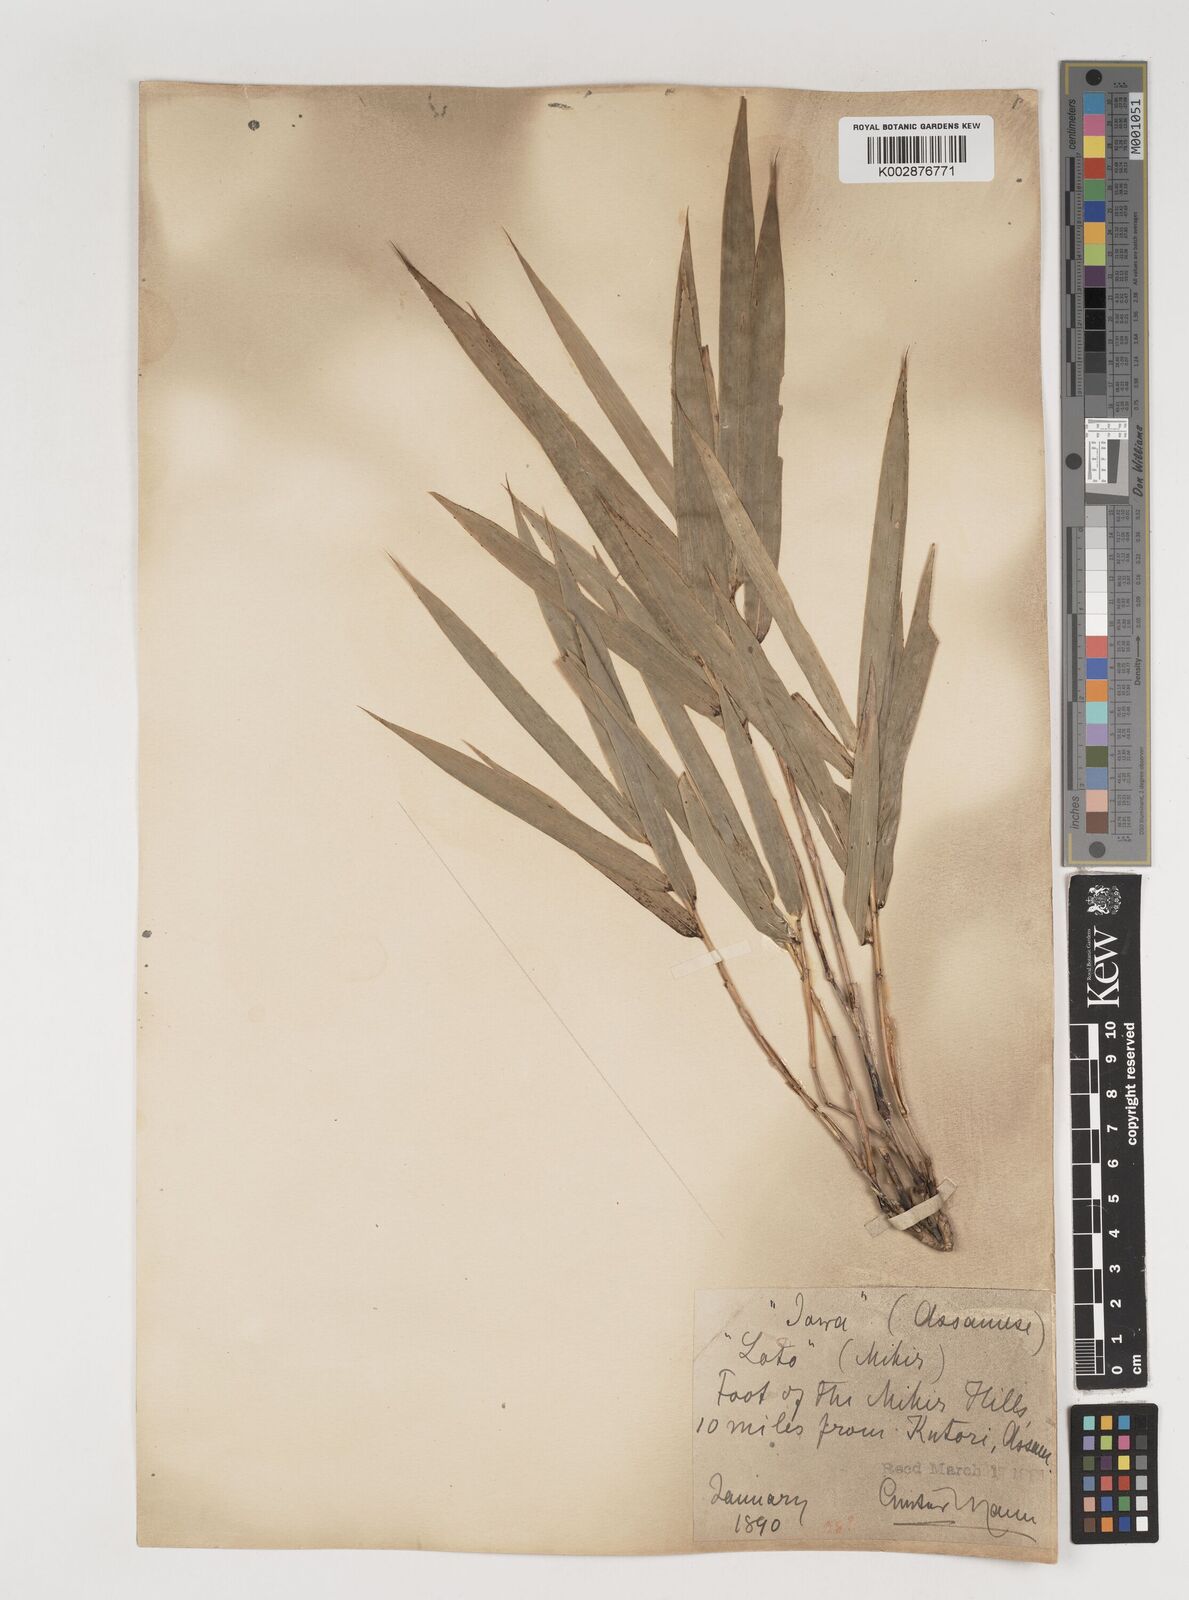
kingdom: Plantae
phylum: Tracheophyta
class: Liliopsida
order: Poales
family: Poaceae
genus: Bambusa
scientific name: Bambusa pallida
